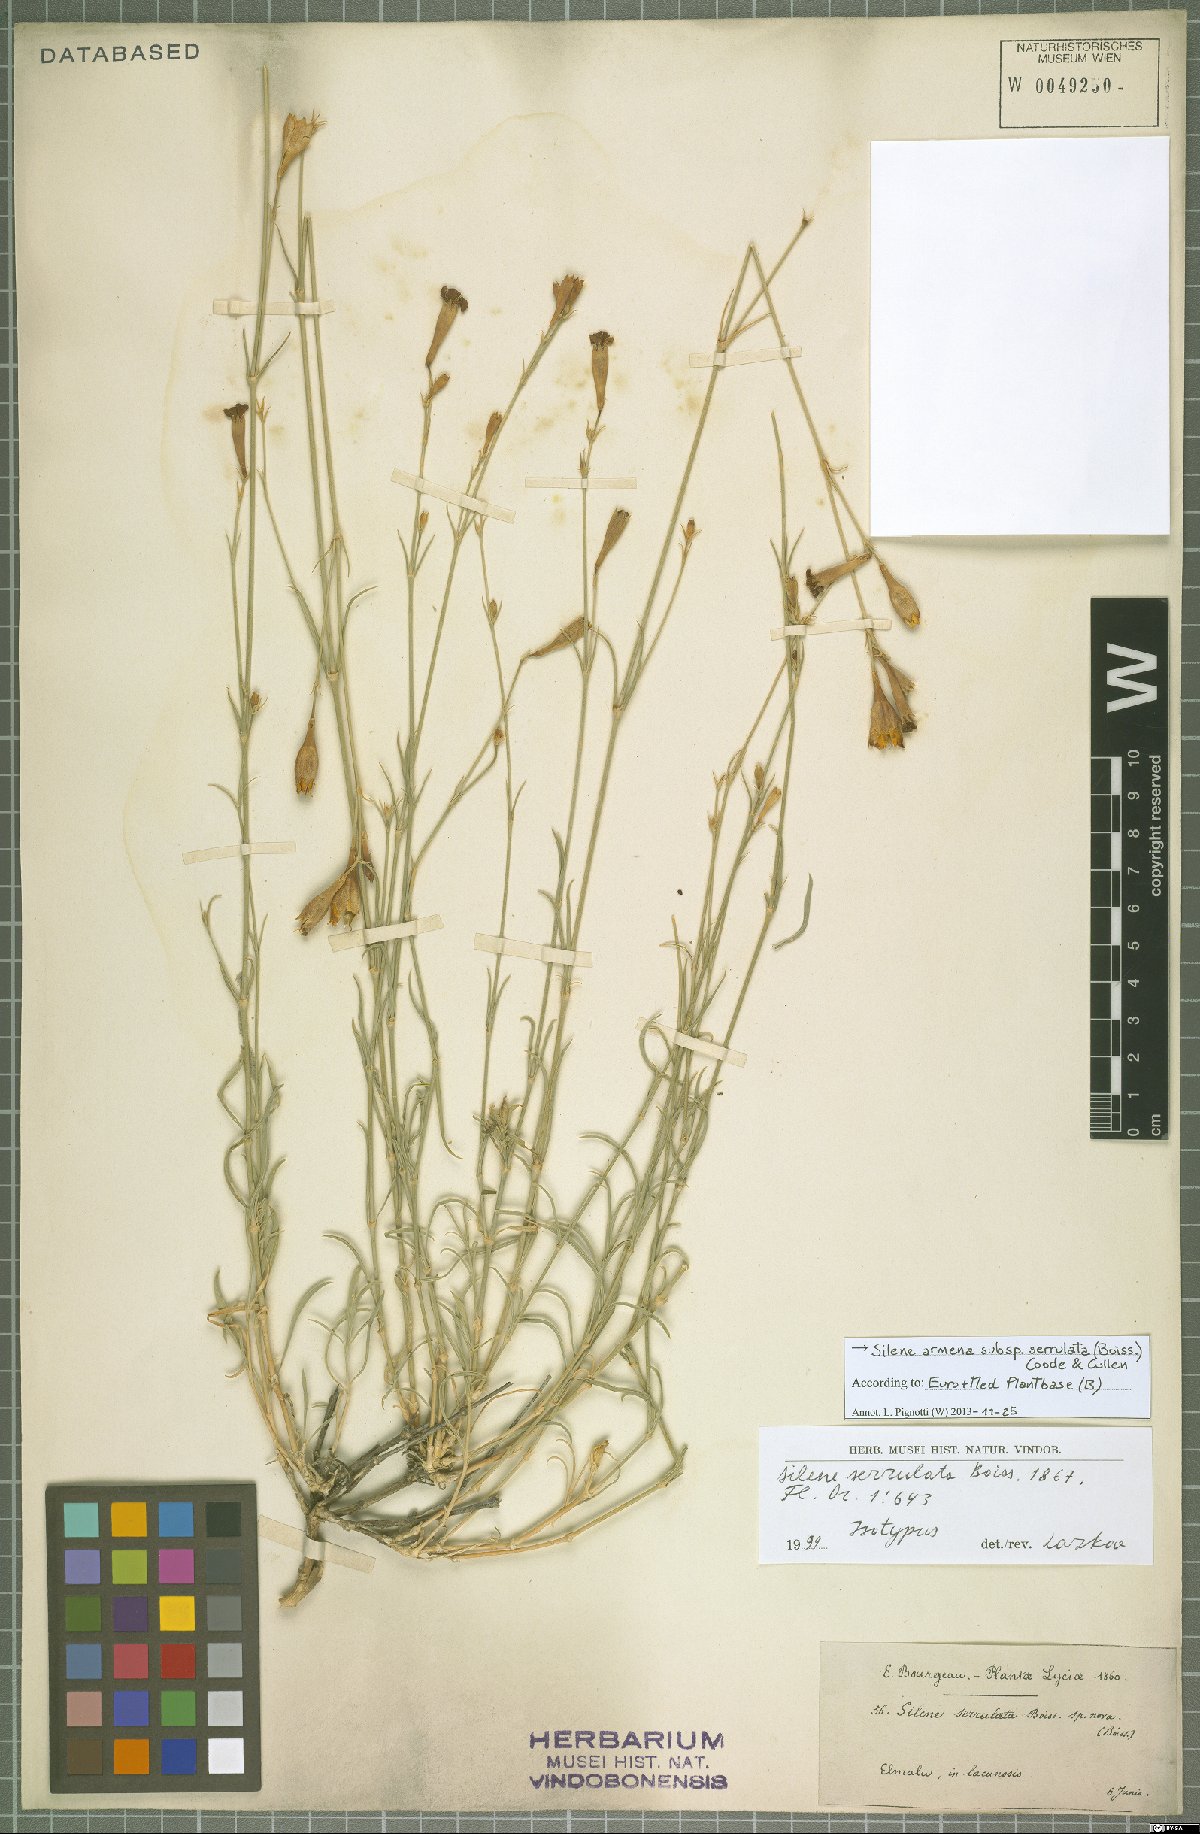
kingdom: Plantae
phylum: Tracheophyta
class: Magnoliopsida
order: Caryophyllales
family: Caryophyllaceae
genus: Silene
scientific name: Silene armena
